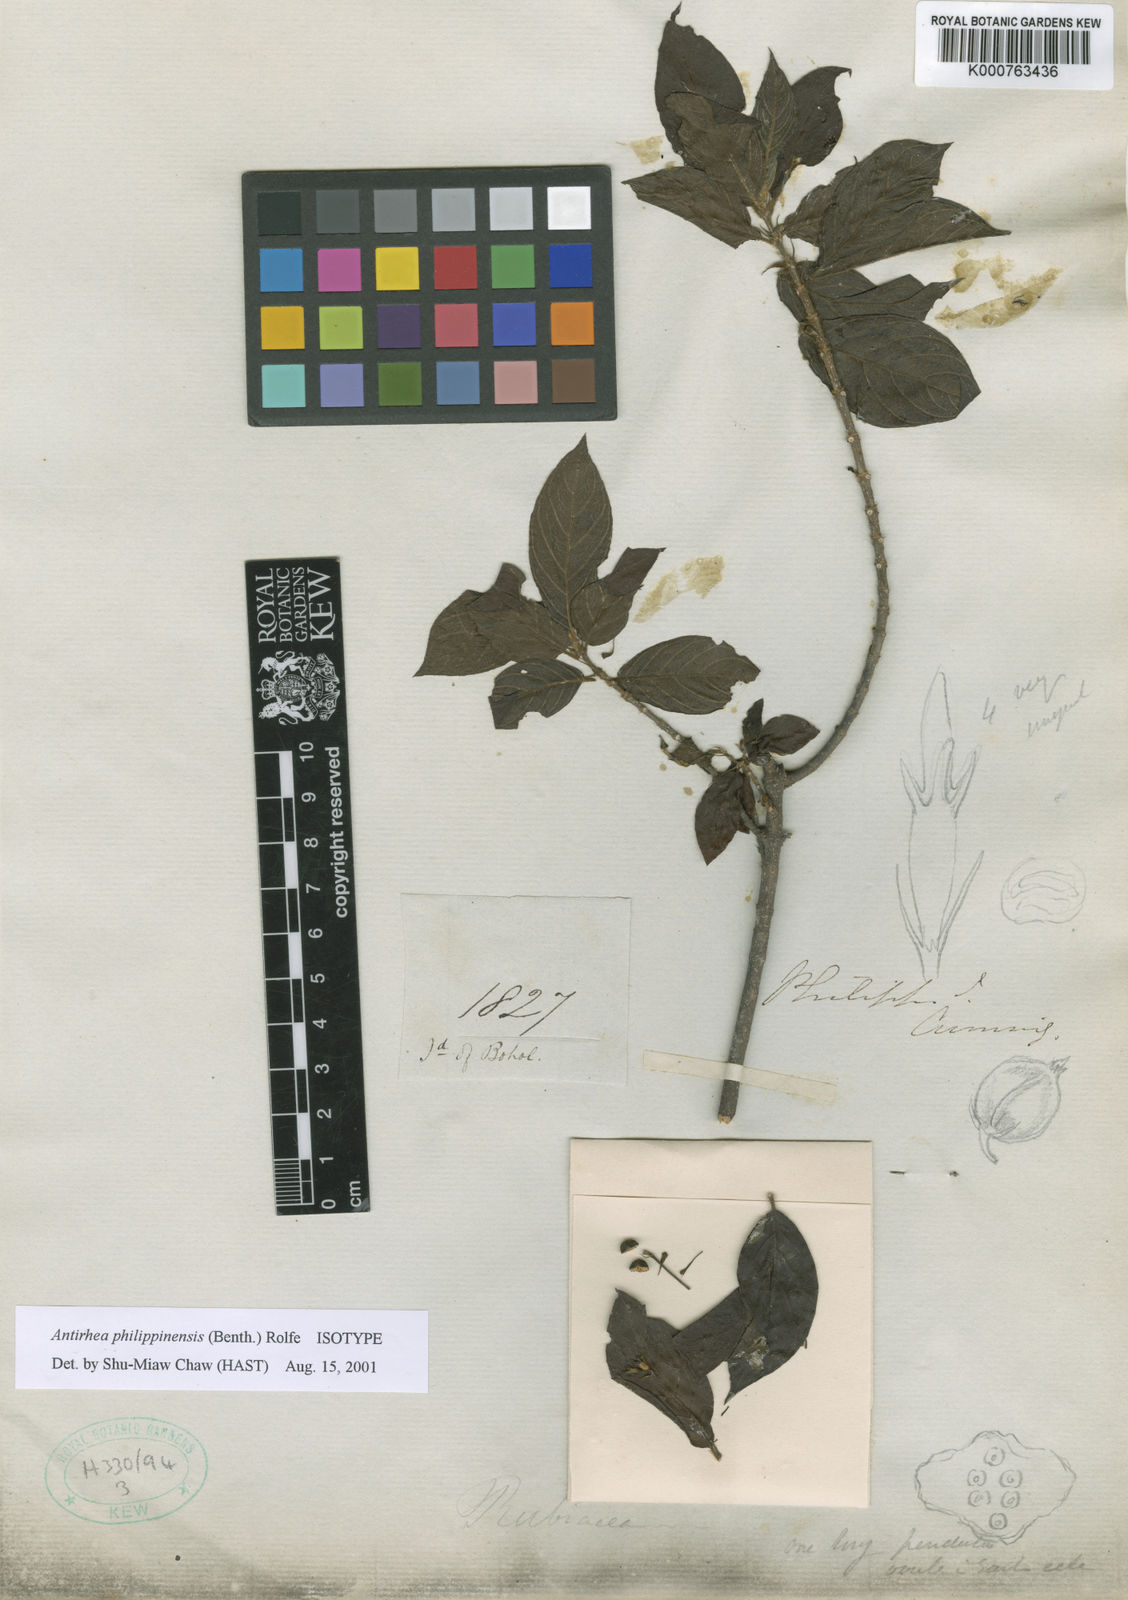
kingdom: Plantae
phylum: Tracheophyta
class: Magnoliopsida
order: Gentianales
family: Rubiaceae
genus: Guettardella
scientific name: Guettardella philippinensis
